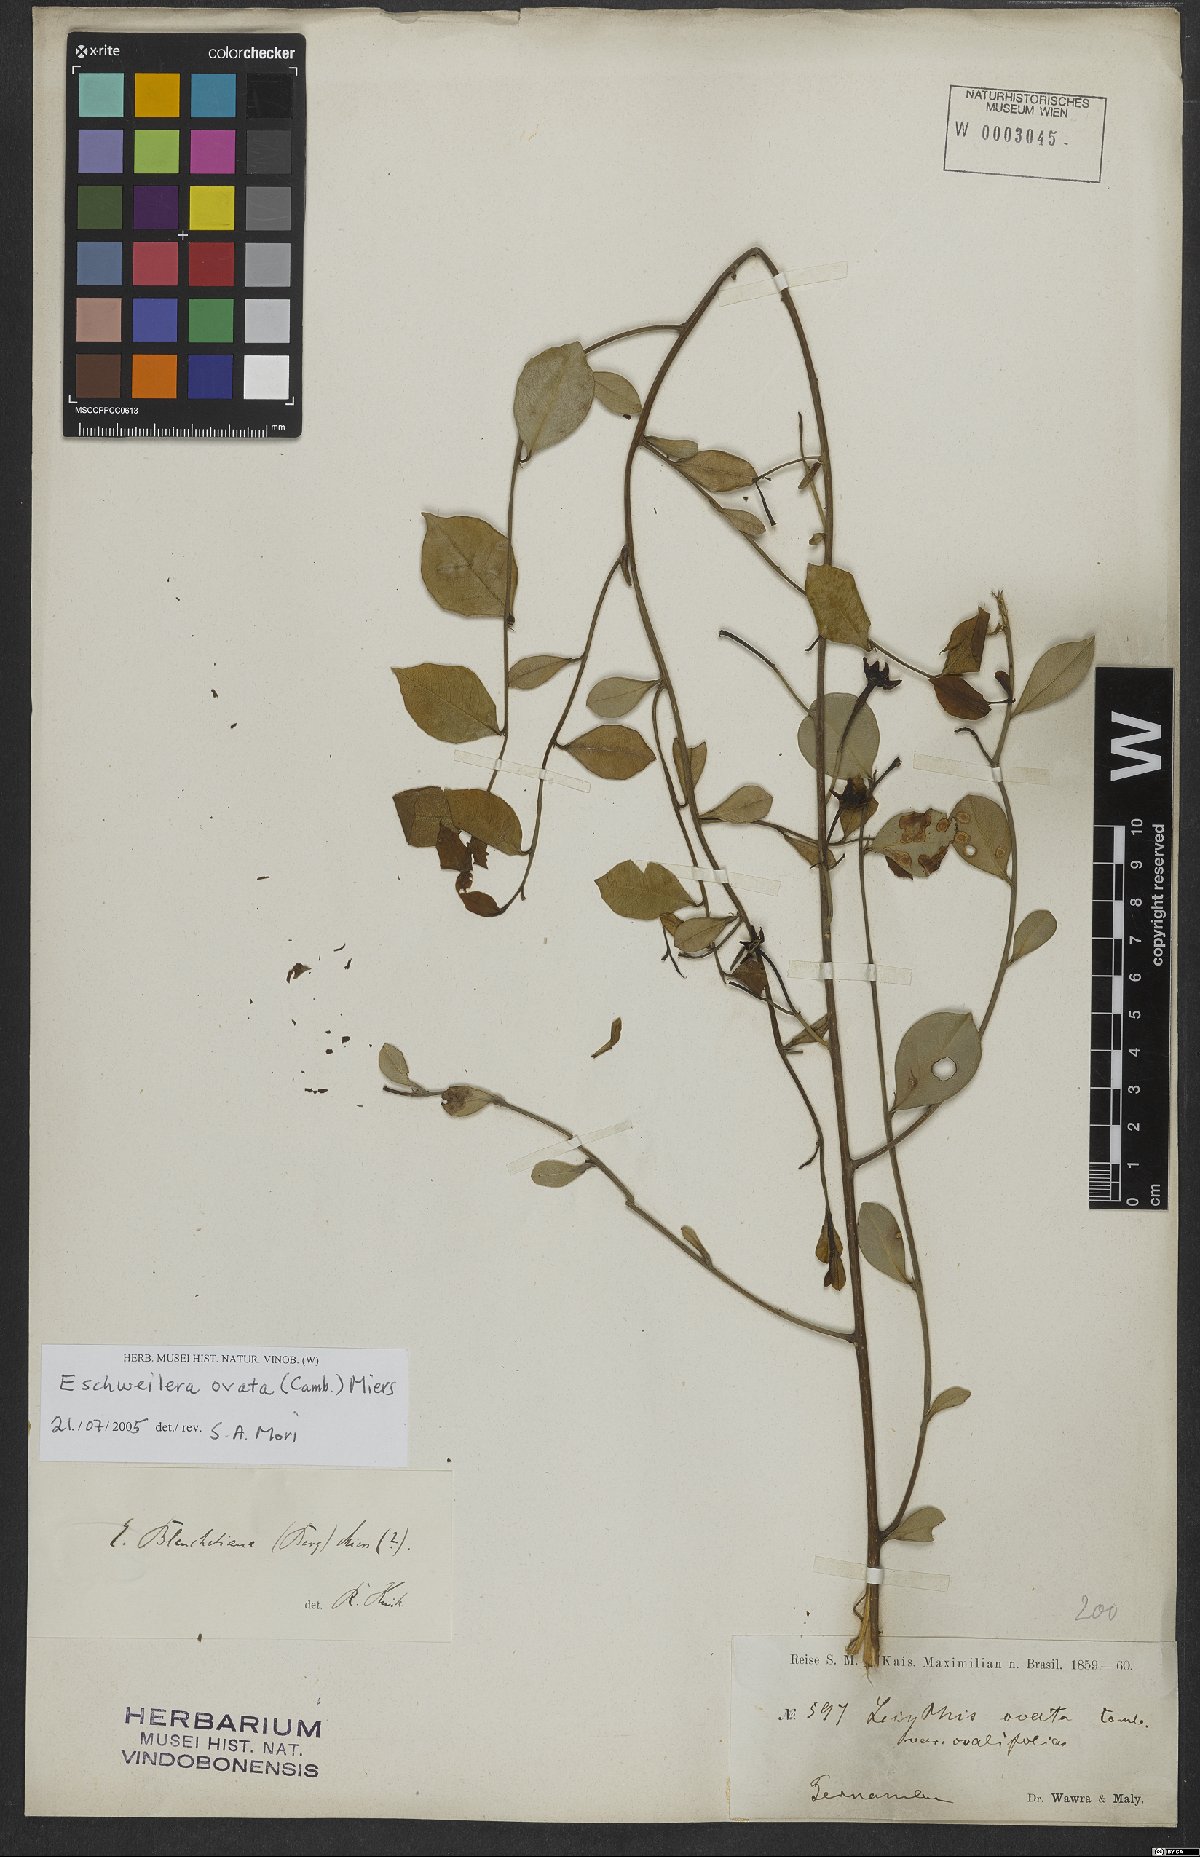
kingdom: Plantae
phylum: Tracheophyta
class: Magnoliopsida
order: Ericales
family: Lecythidaceae
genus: Eschweilera
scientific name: Eschweilera ovata
